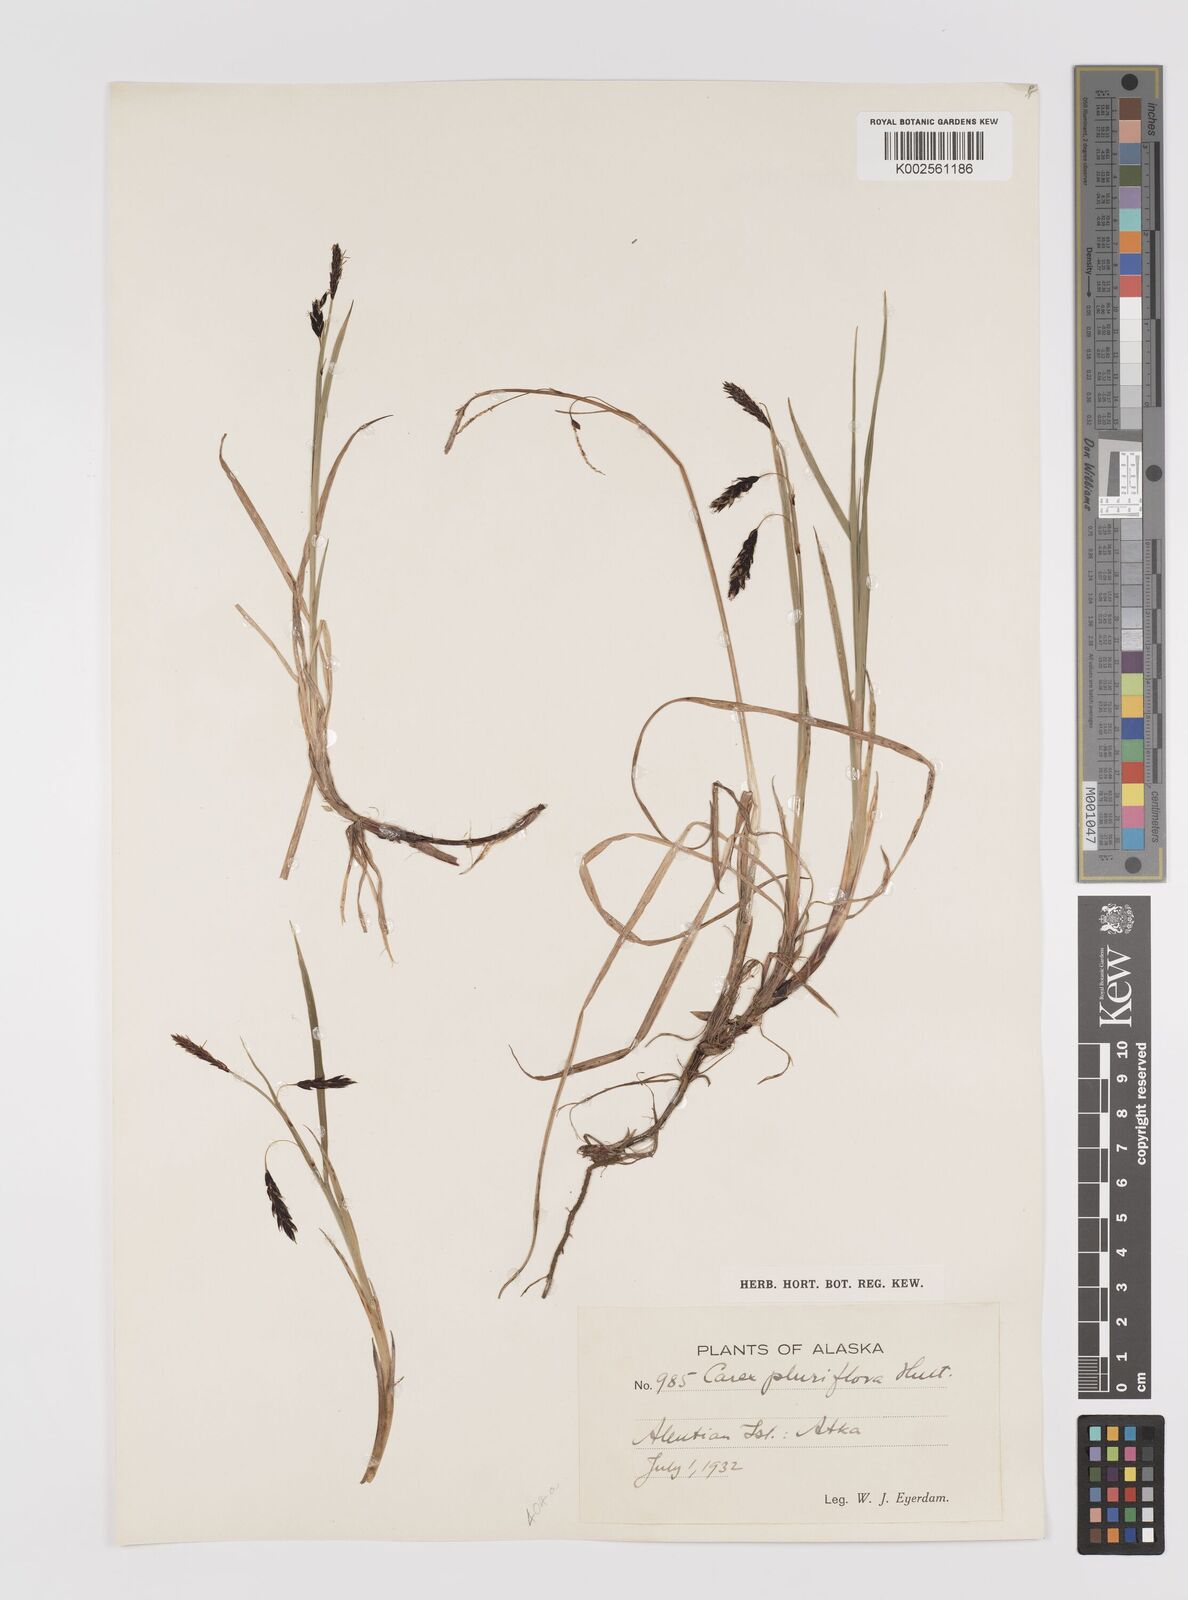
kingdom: Plantae
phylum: Tracheophyta
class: Liliopsida
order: Poales
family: Cyperaceae
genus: Carex
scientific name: Carex pluriflora
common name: Manyflower sedge
